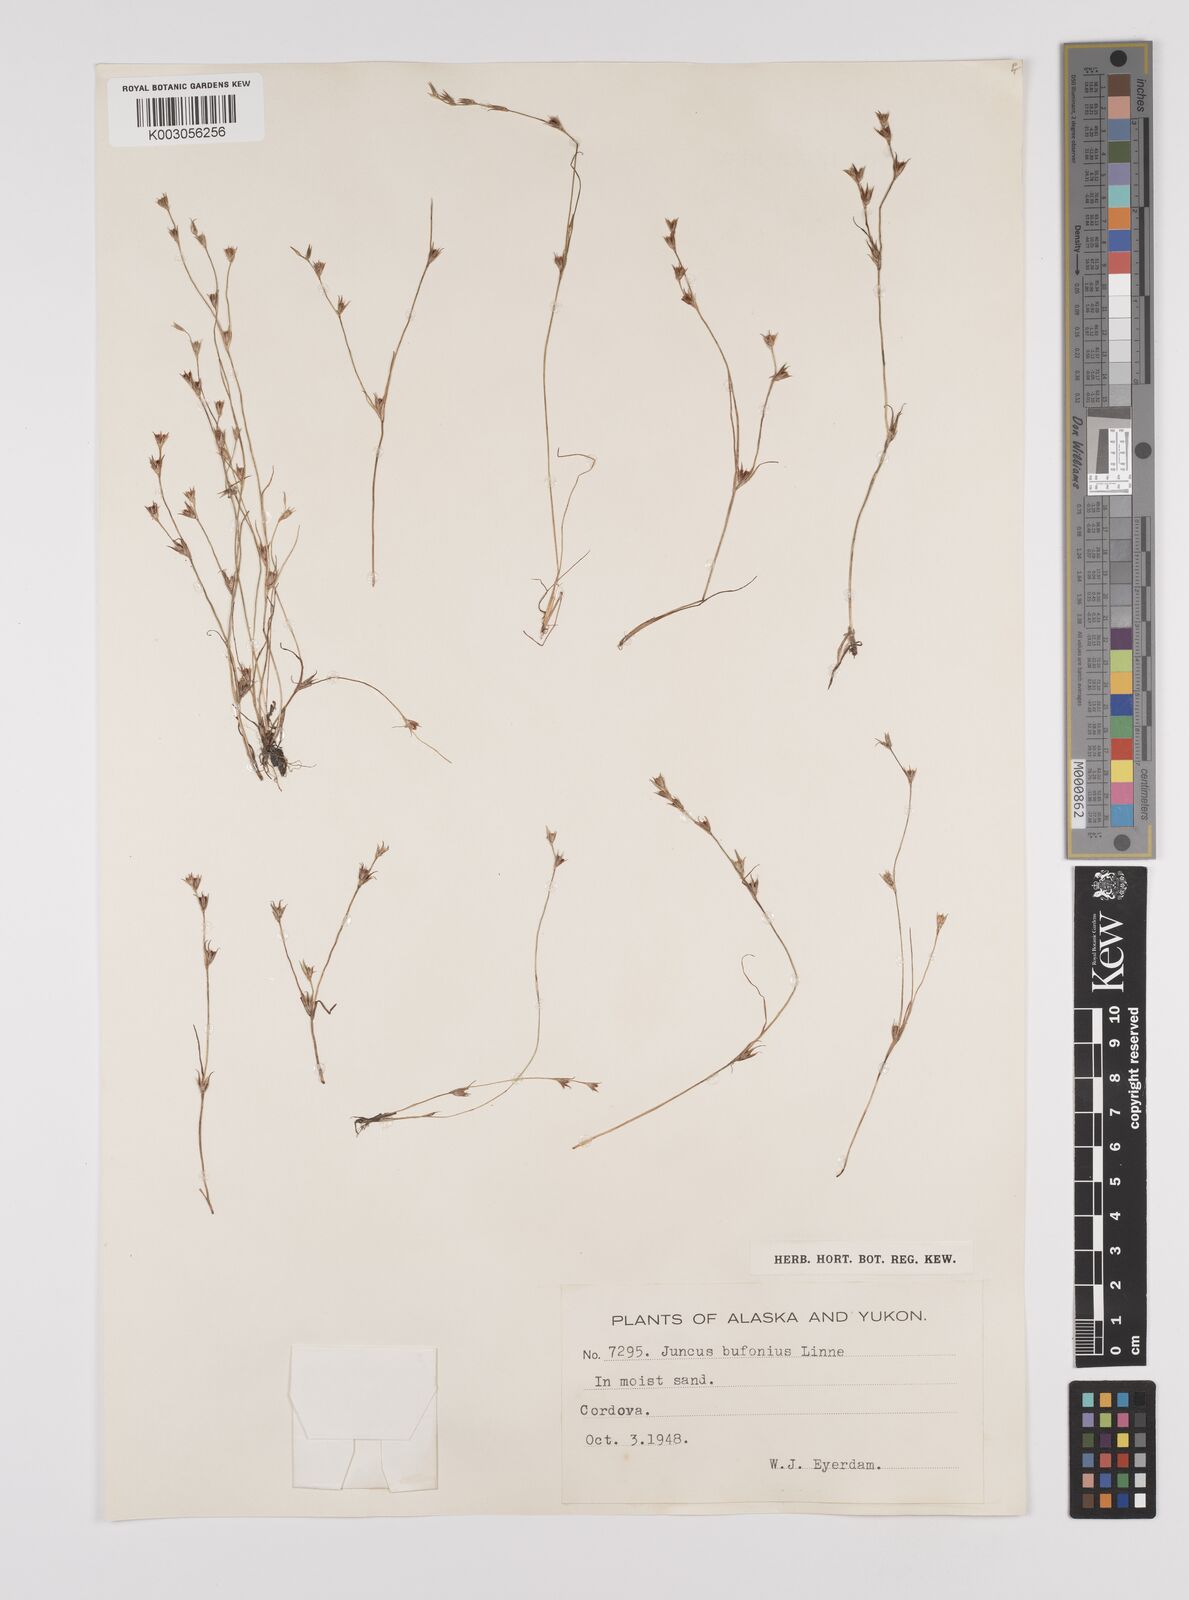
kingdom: Plantae
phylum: Tracheophyta
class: Liliopsida
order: Poales
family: Juncaceae
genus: Juncus
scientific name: Juncus bufonius
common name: Toad rush
